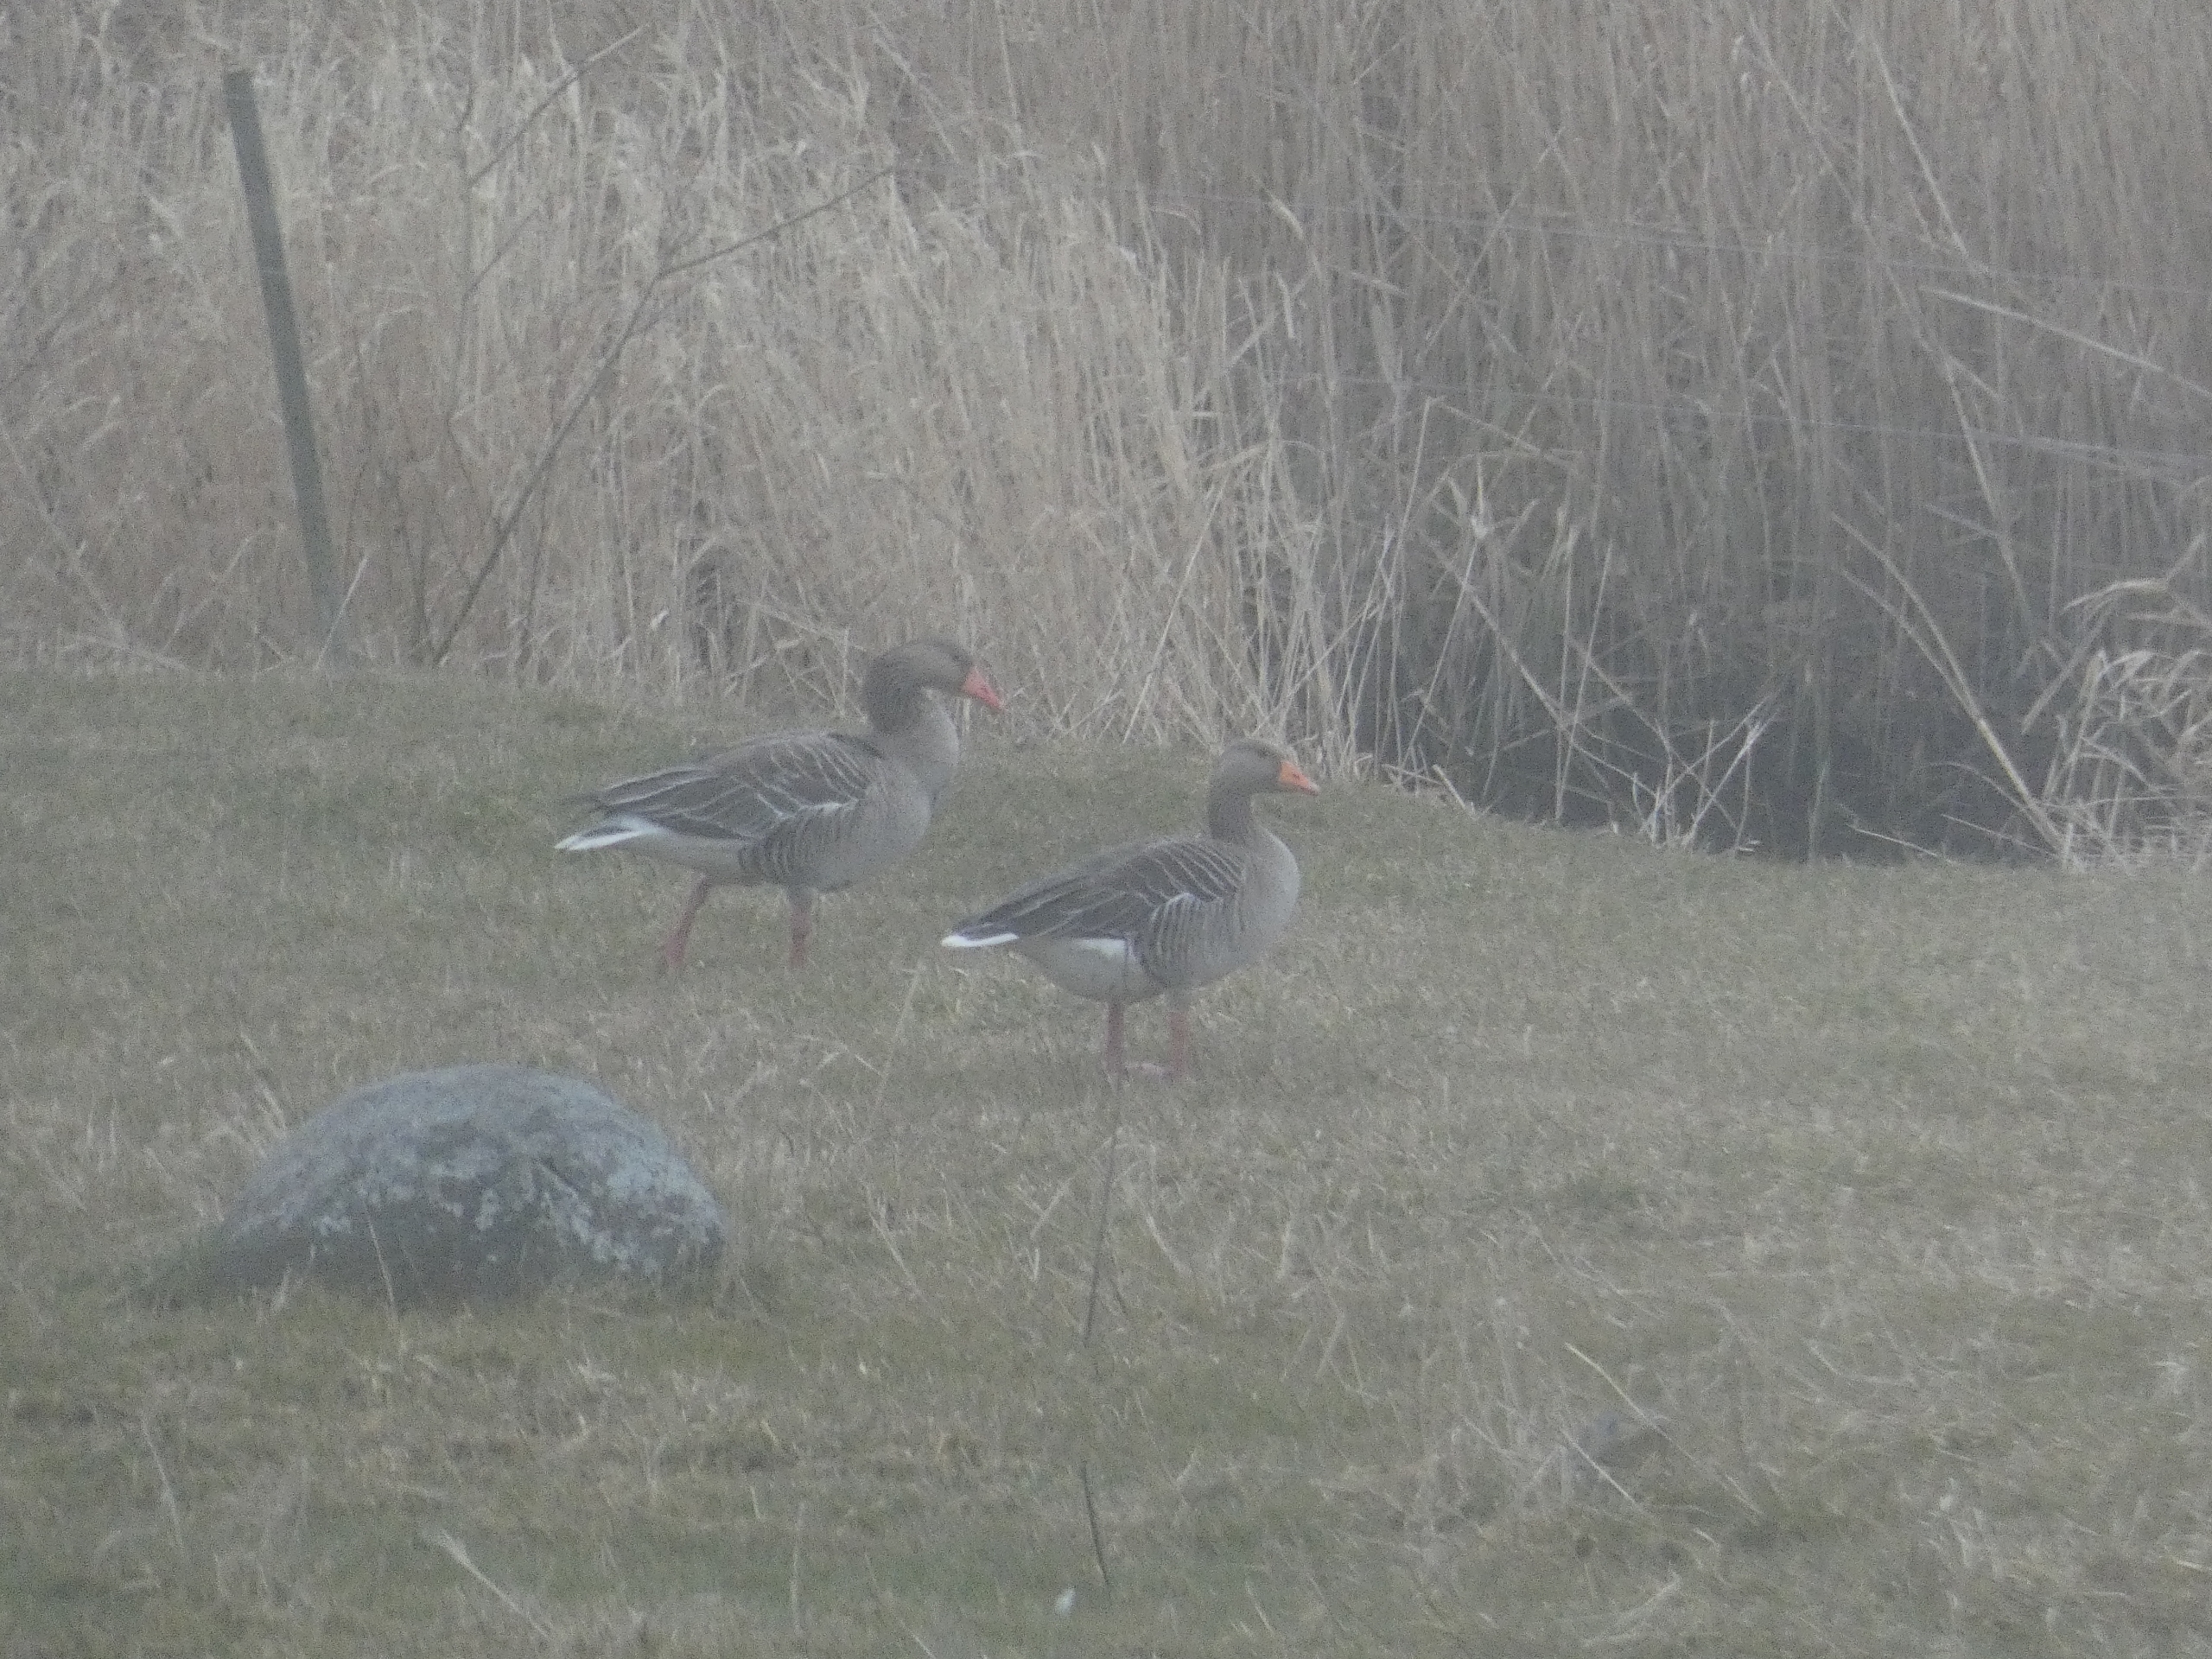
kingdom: Animalia
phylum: Chordata
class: Aves
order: Anseriformes
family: Anatidae
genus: Anser
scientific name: Anser anser
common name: Grågås
